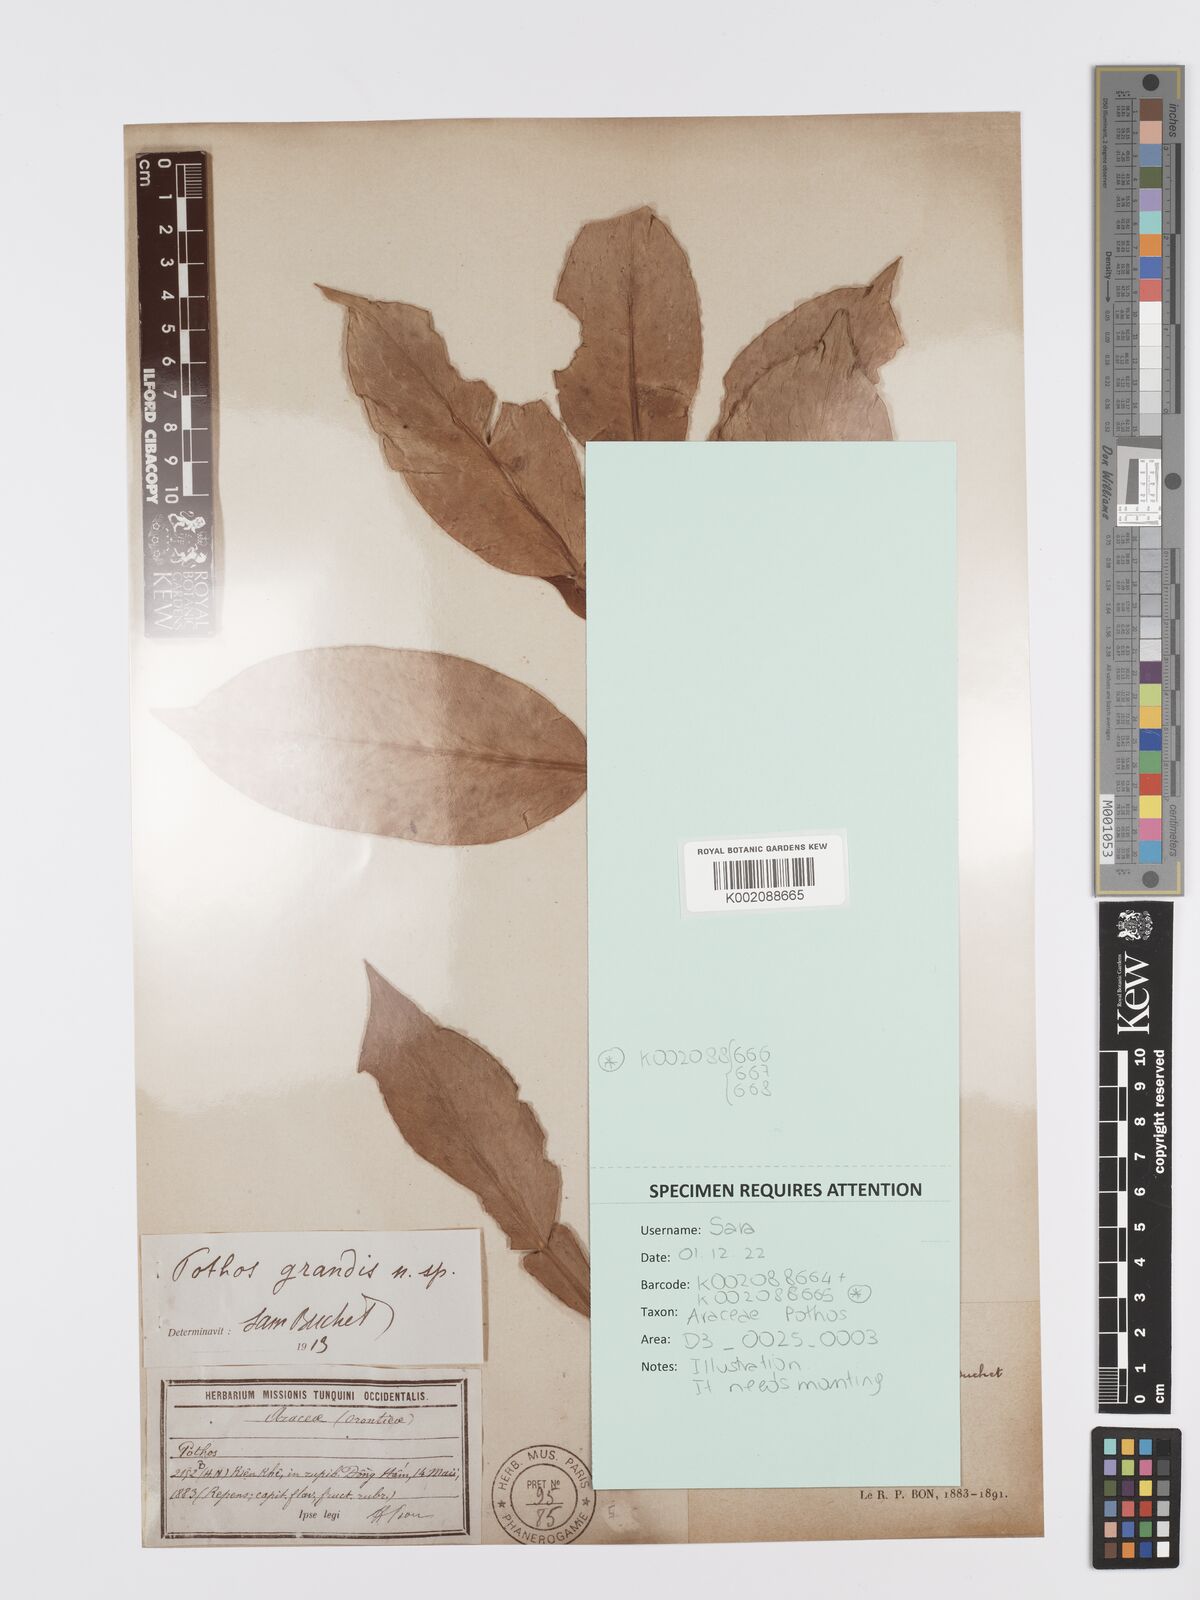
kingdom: Plantae
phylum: Tracheophyta
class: Liliopsida
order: Alismatales
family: Araceae
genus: Pothos
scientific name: Pothos grandis
